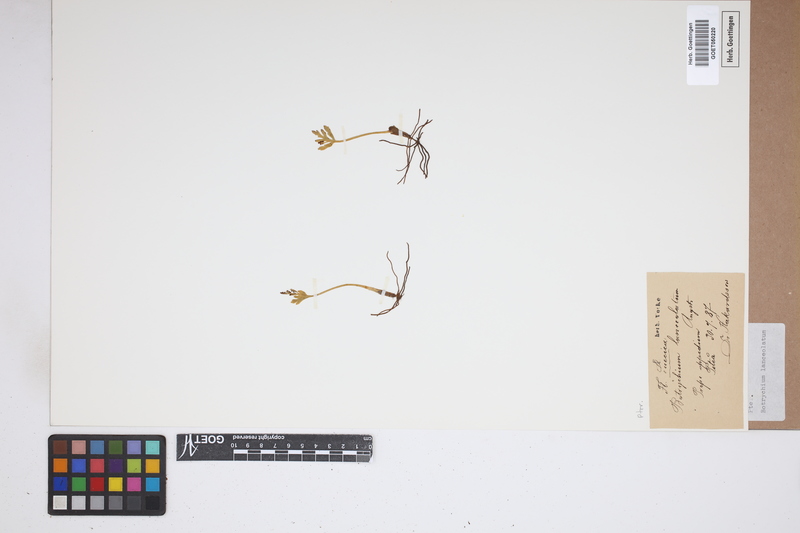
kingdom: Plantae
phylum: Tracheophyta
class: Polypodiopsida
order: Ophioglossales
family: Ophioglossaceae
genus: Botrychium
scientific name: Botrychium lanceolatum
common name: Lance-leaved moonwort
